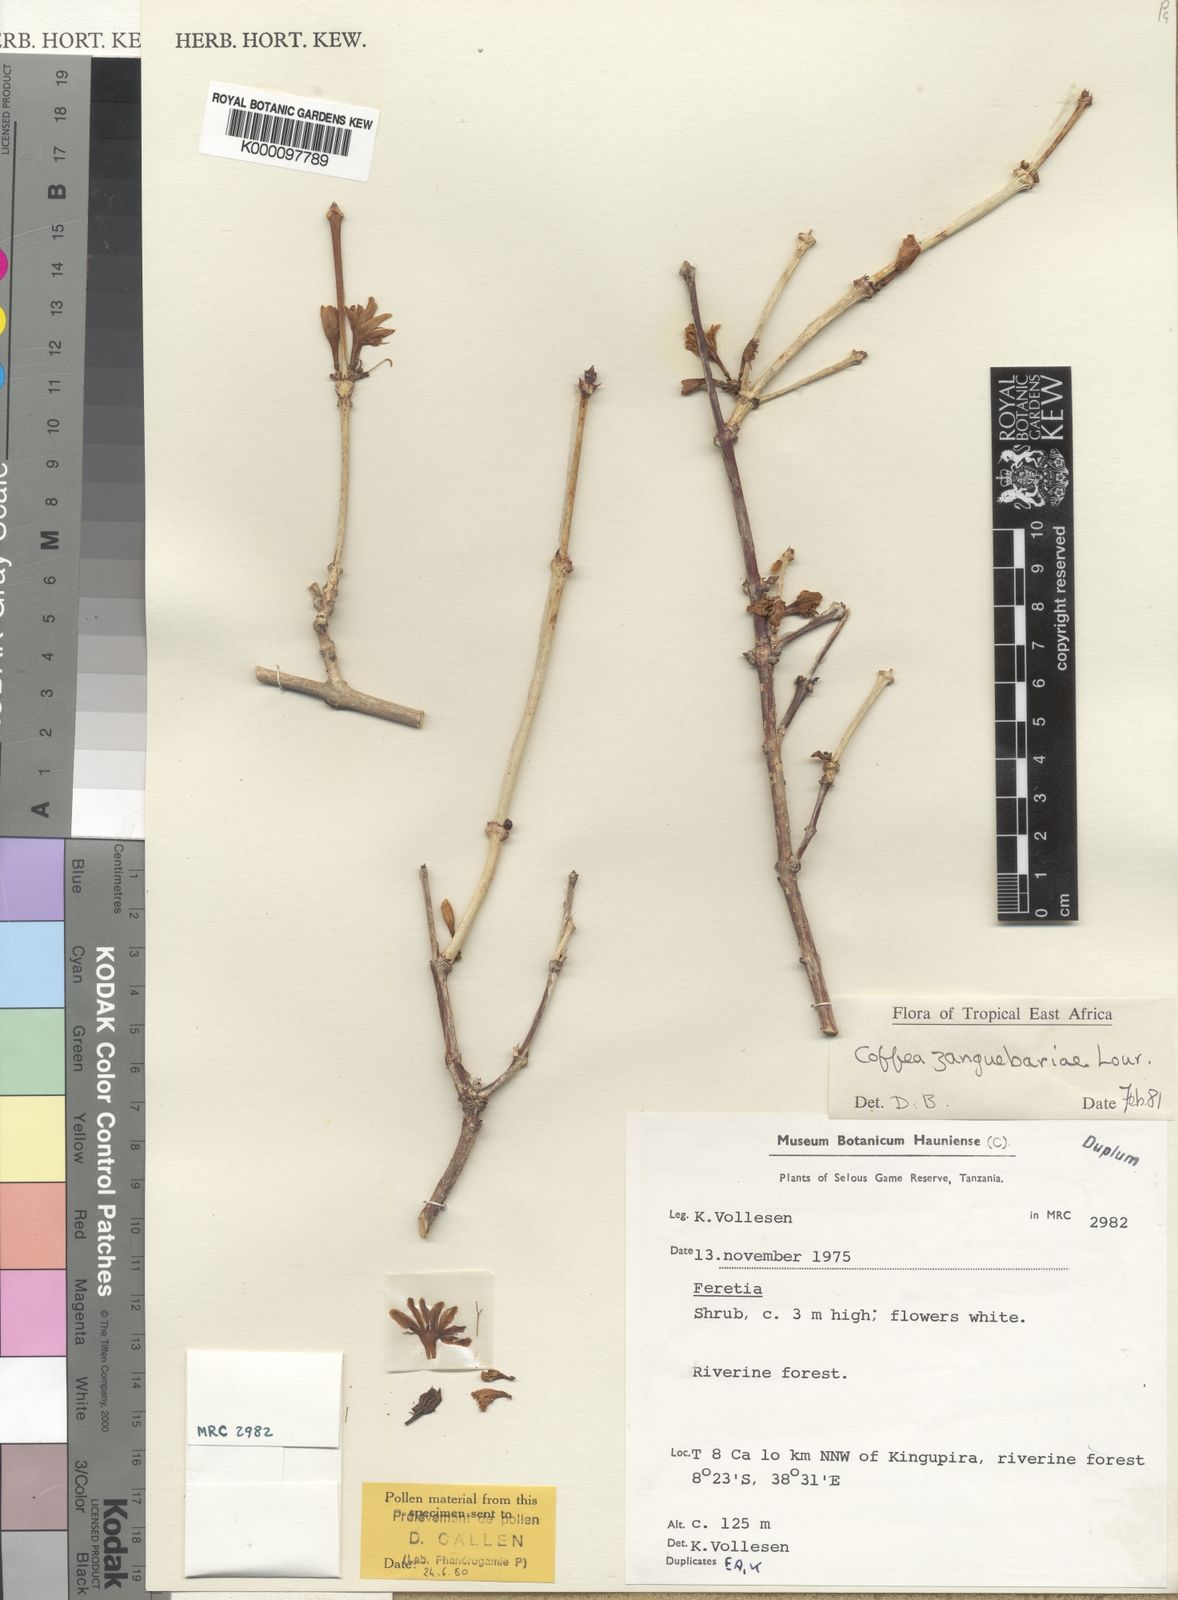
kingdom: Plantae
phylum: Tracheophyta
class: Magnoliopsida
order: Gentianales
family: Rubiaceae
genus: Coffea
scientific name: Coffea zanguebariae
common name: Zanzibar coffee
